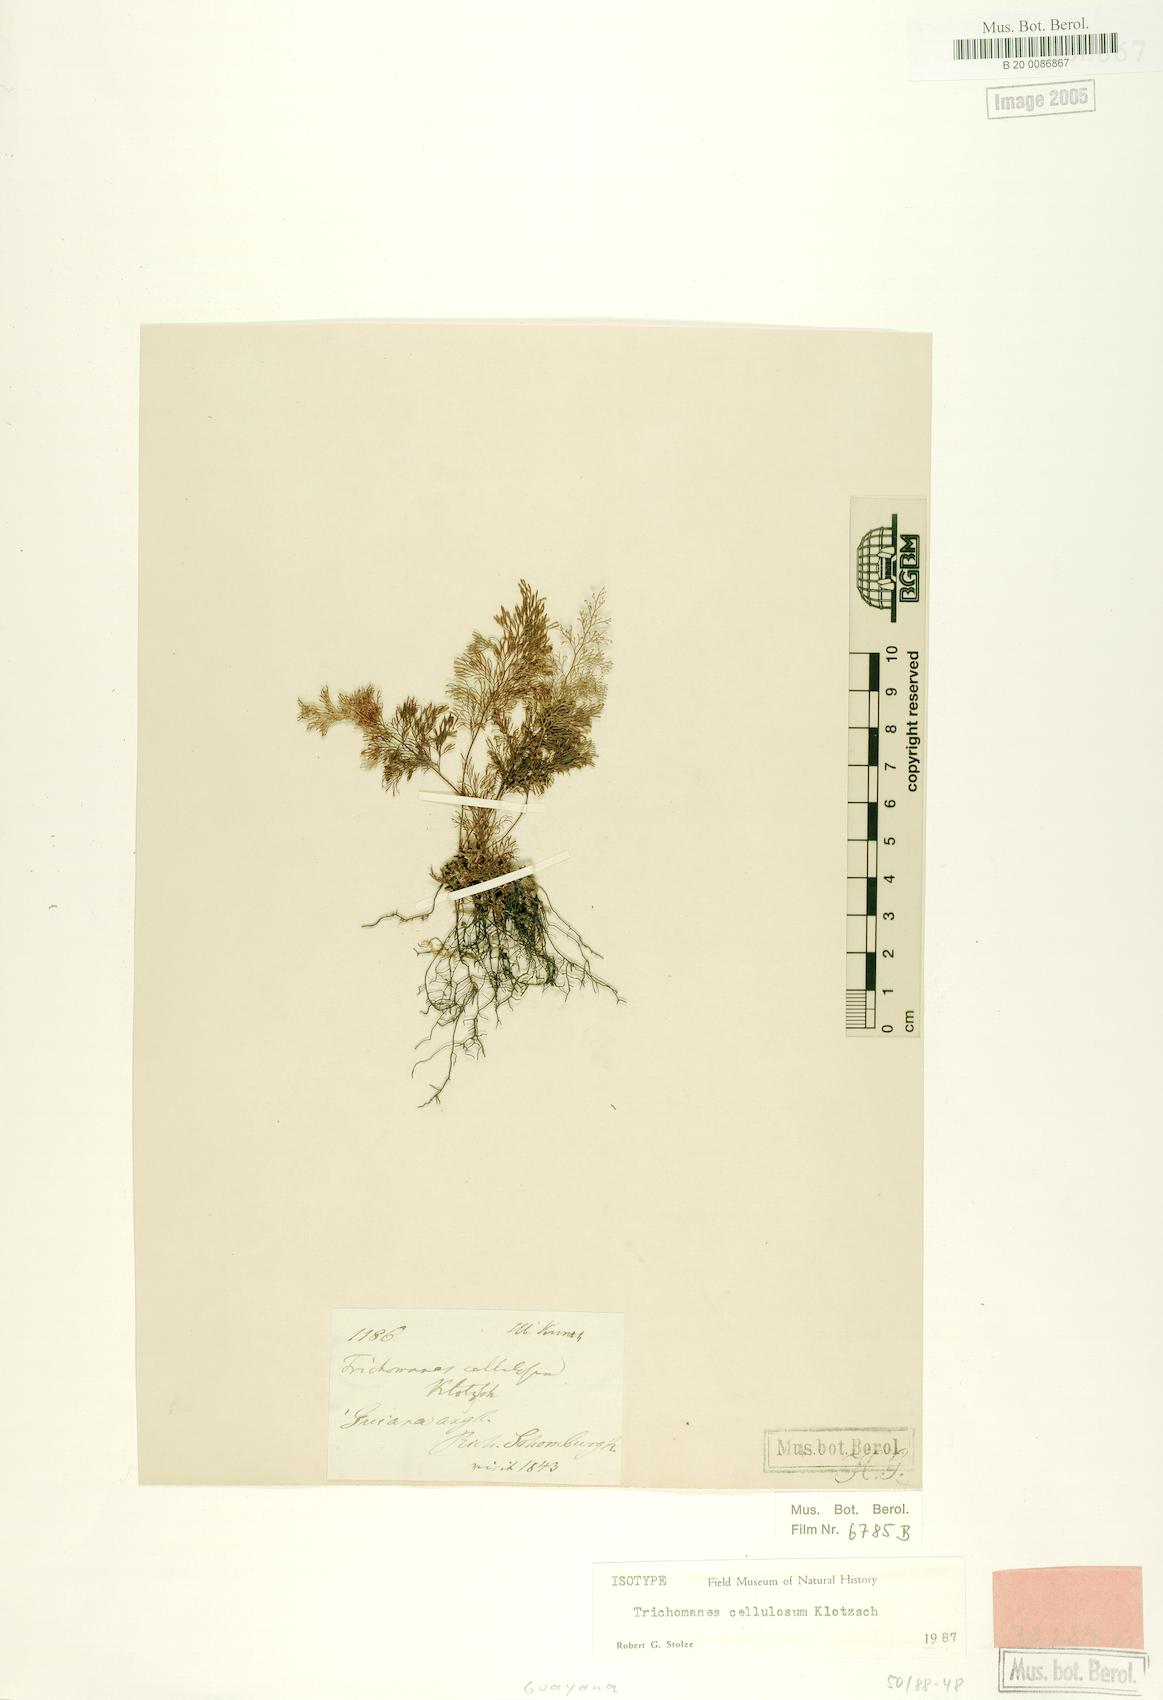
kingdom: Plantae
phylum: Tracheophyta
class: Polypodiopsida
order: Hymenophyllales
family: Hymenophyllaceae
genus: Abrodictyum
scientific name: Abrodictyum cellulosum
